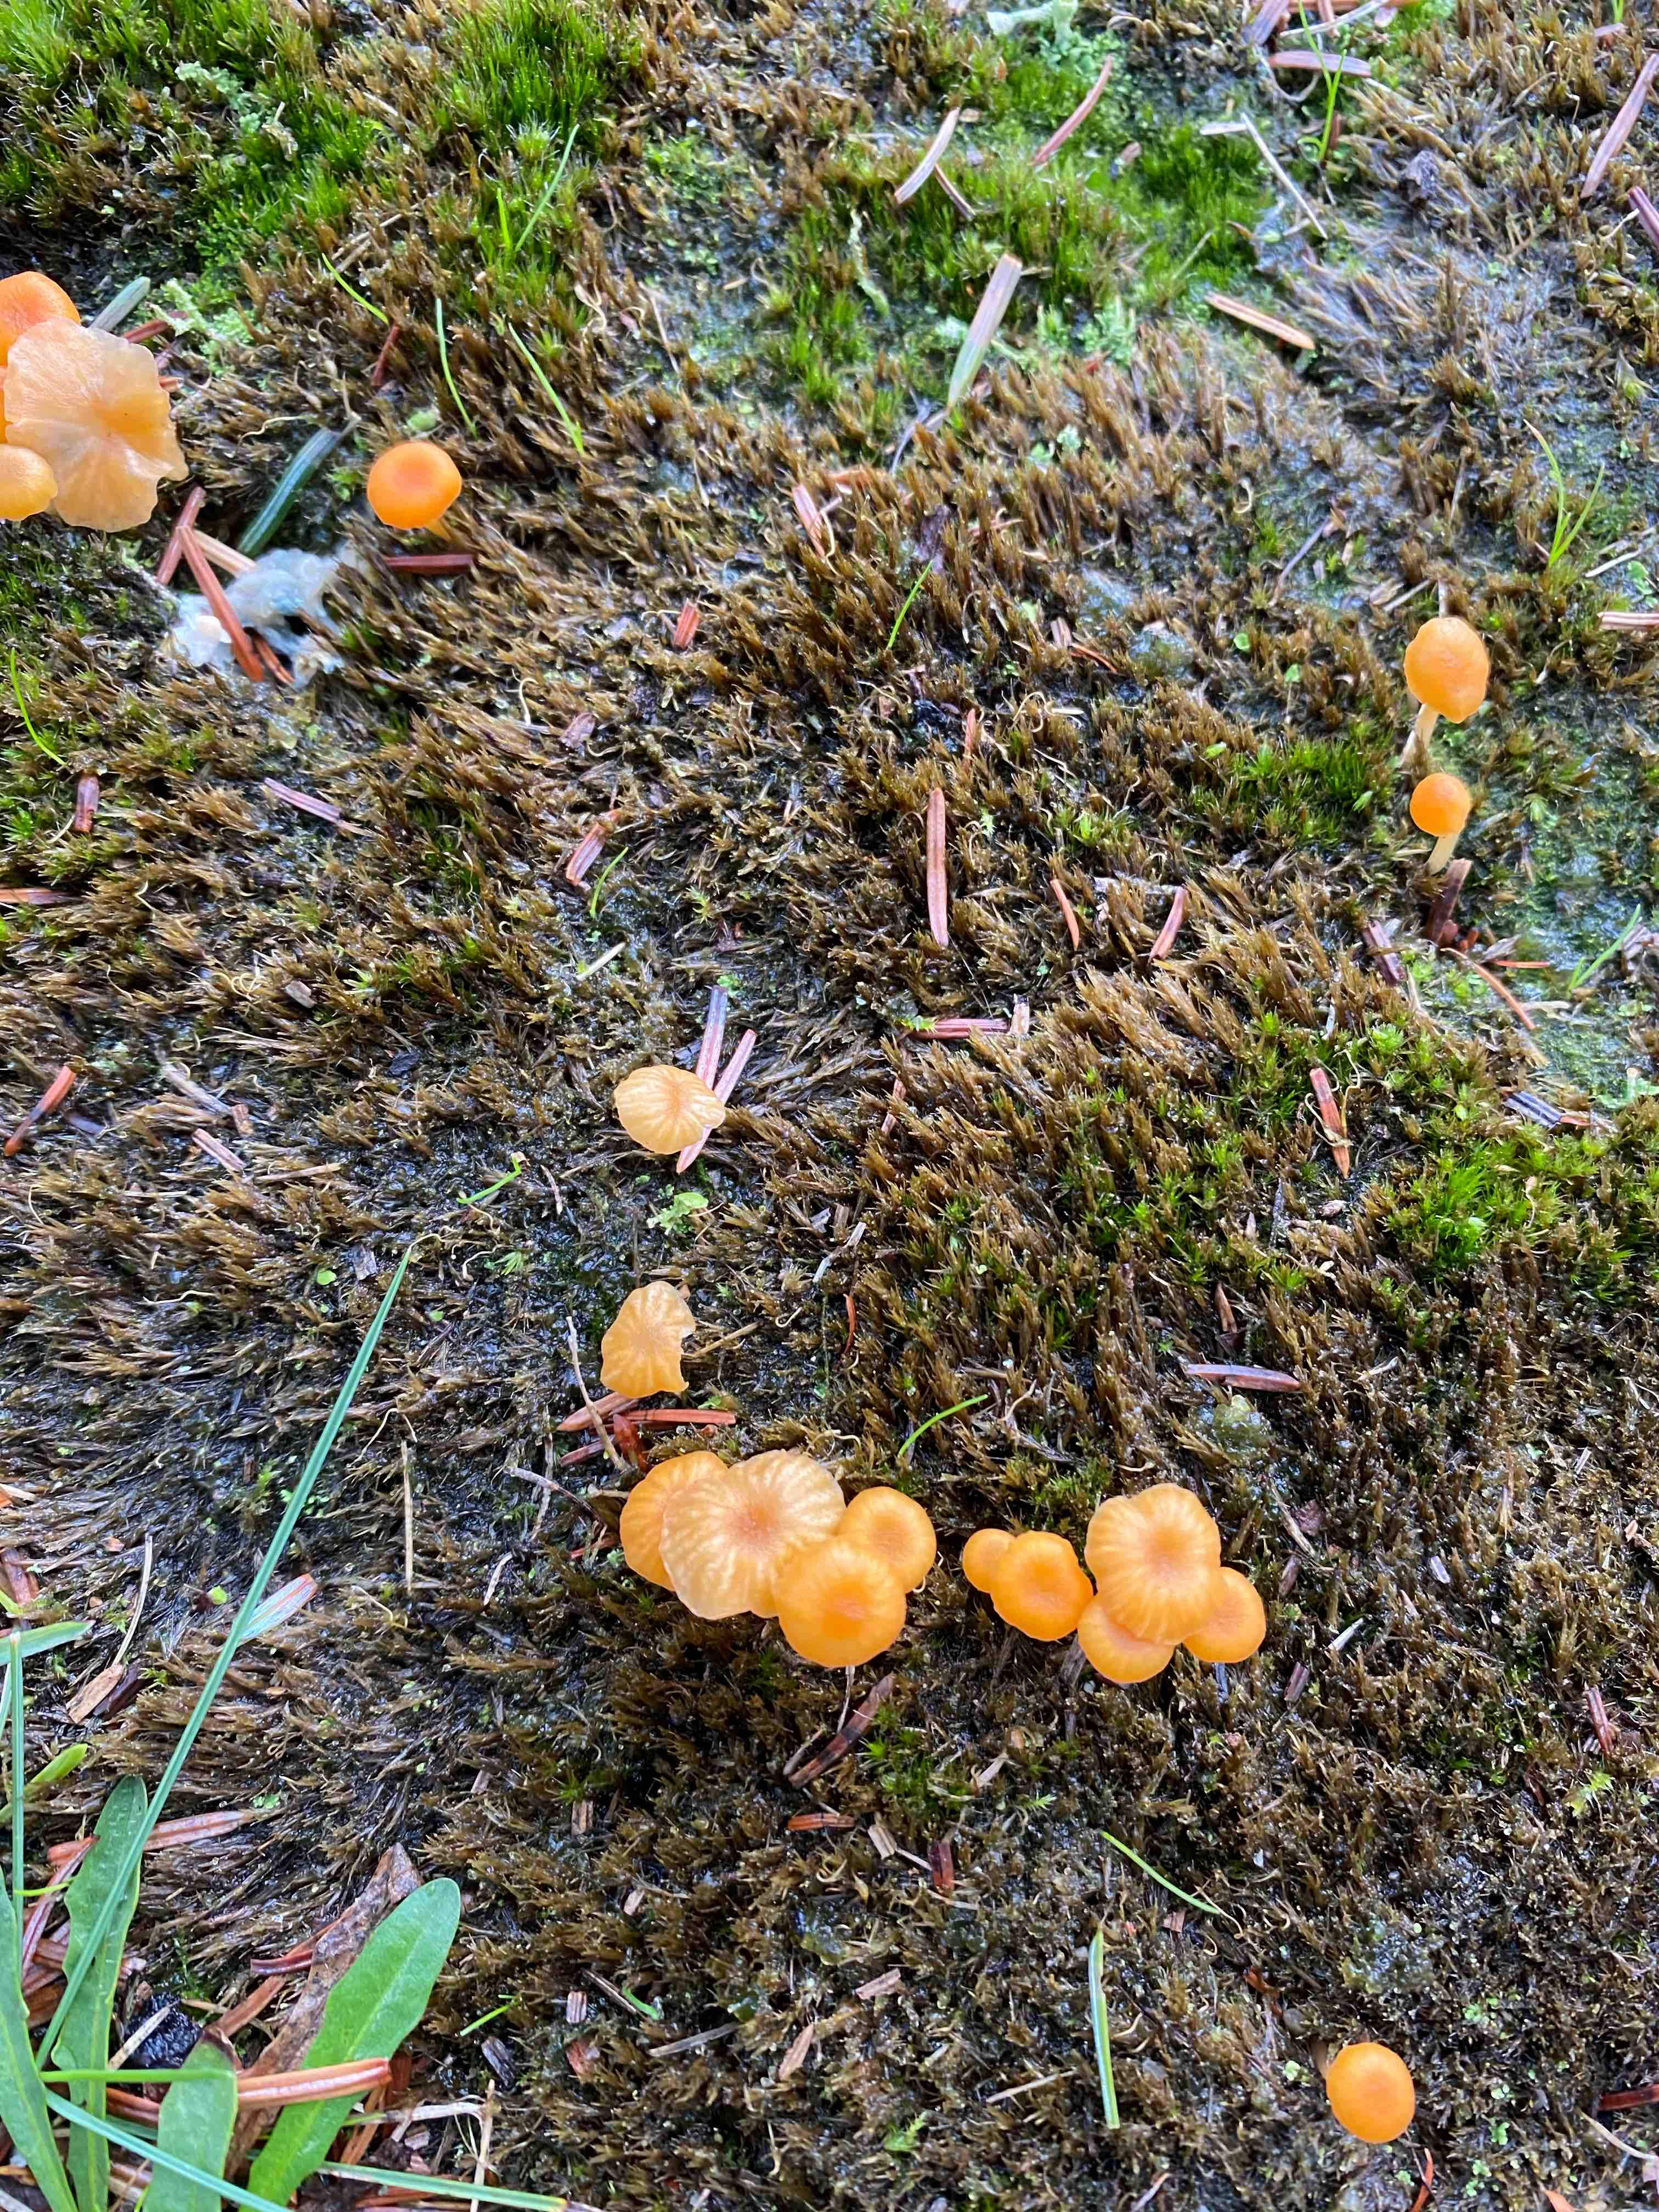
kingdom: Fungi
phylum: Basidiomycota
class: Agaricomycetes
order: Hymenochaetales
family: Rickenellaceae
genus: Rickenella
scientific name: Rickenella
